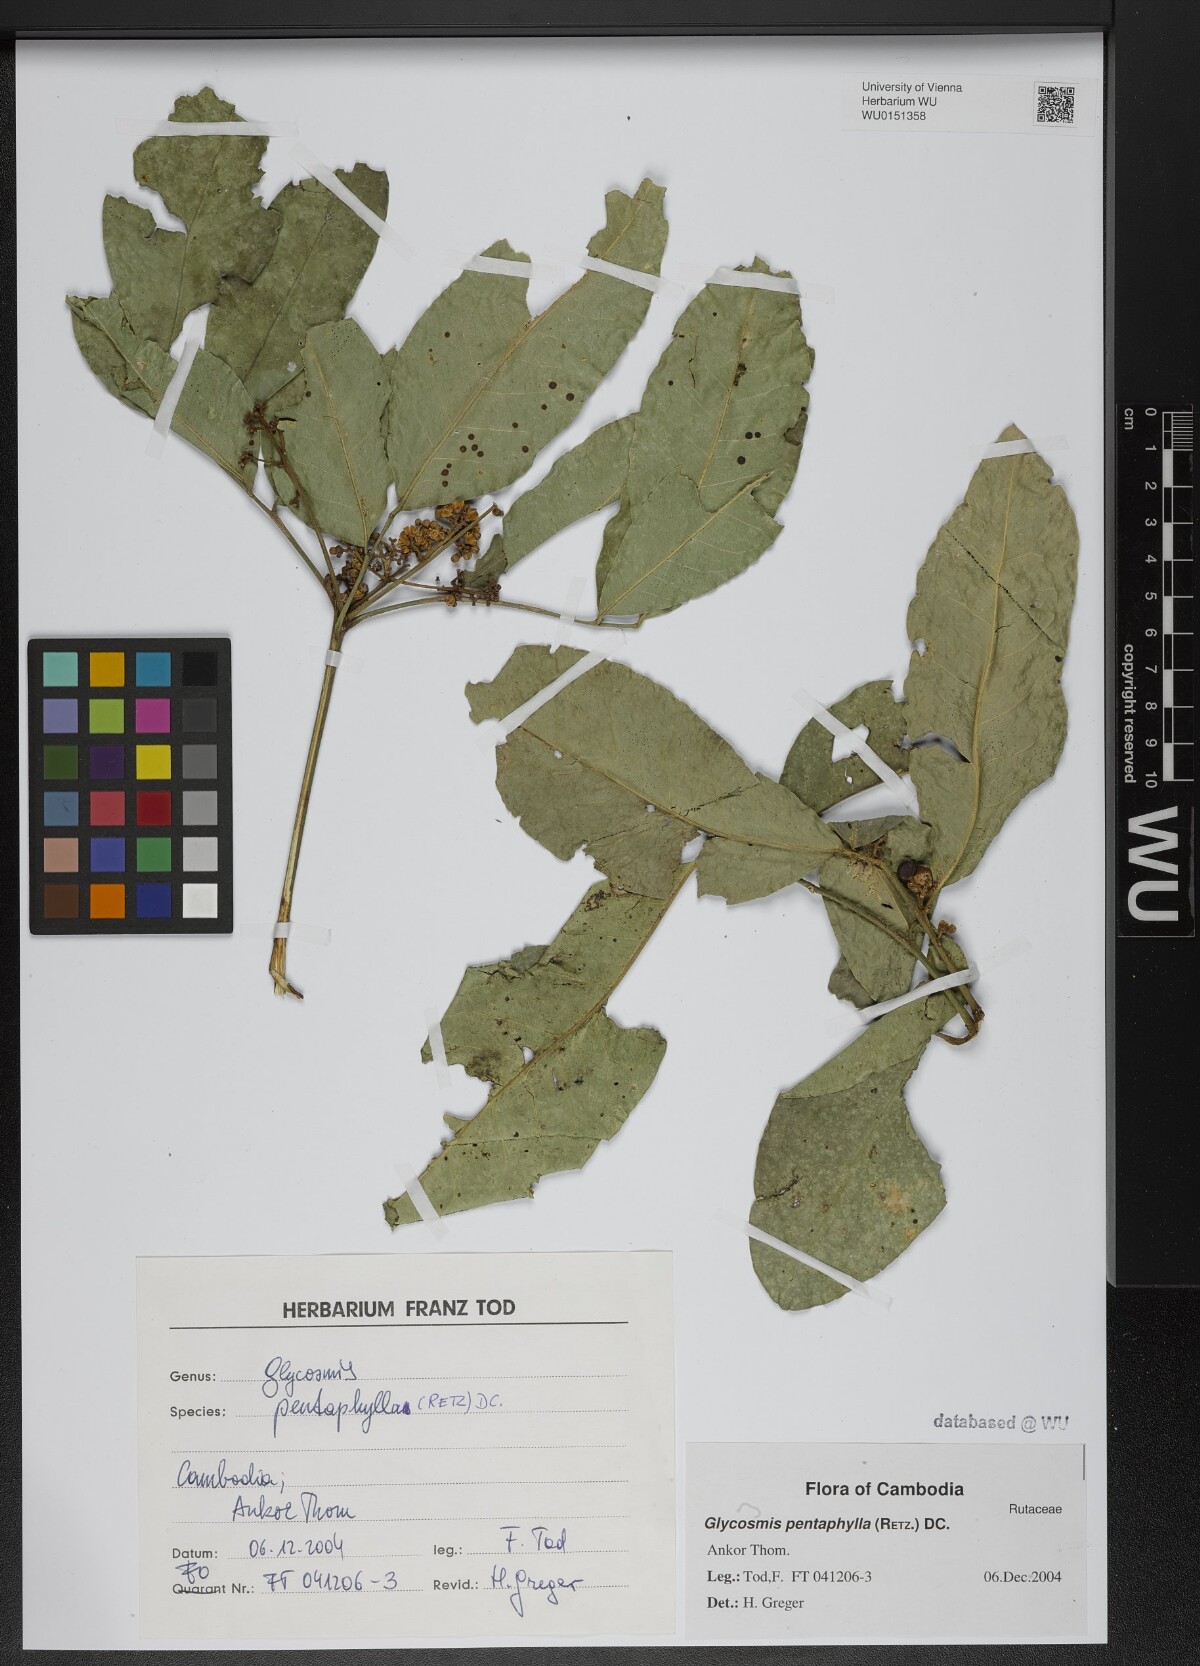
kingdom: Plantae
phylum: Tracheophyta
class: Magnoliopsida
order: Sapindales
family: Rutaceae
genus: Glycosmis
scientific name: Glycosmis pentaphylla
